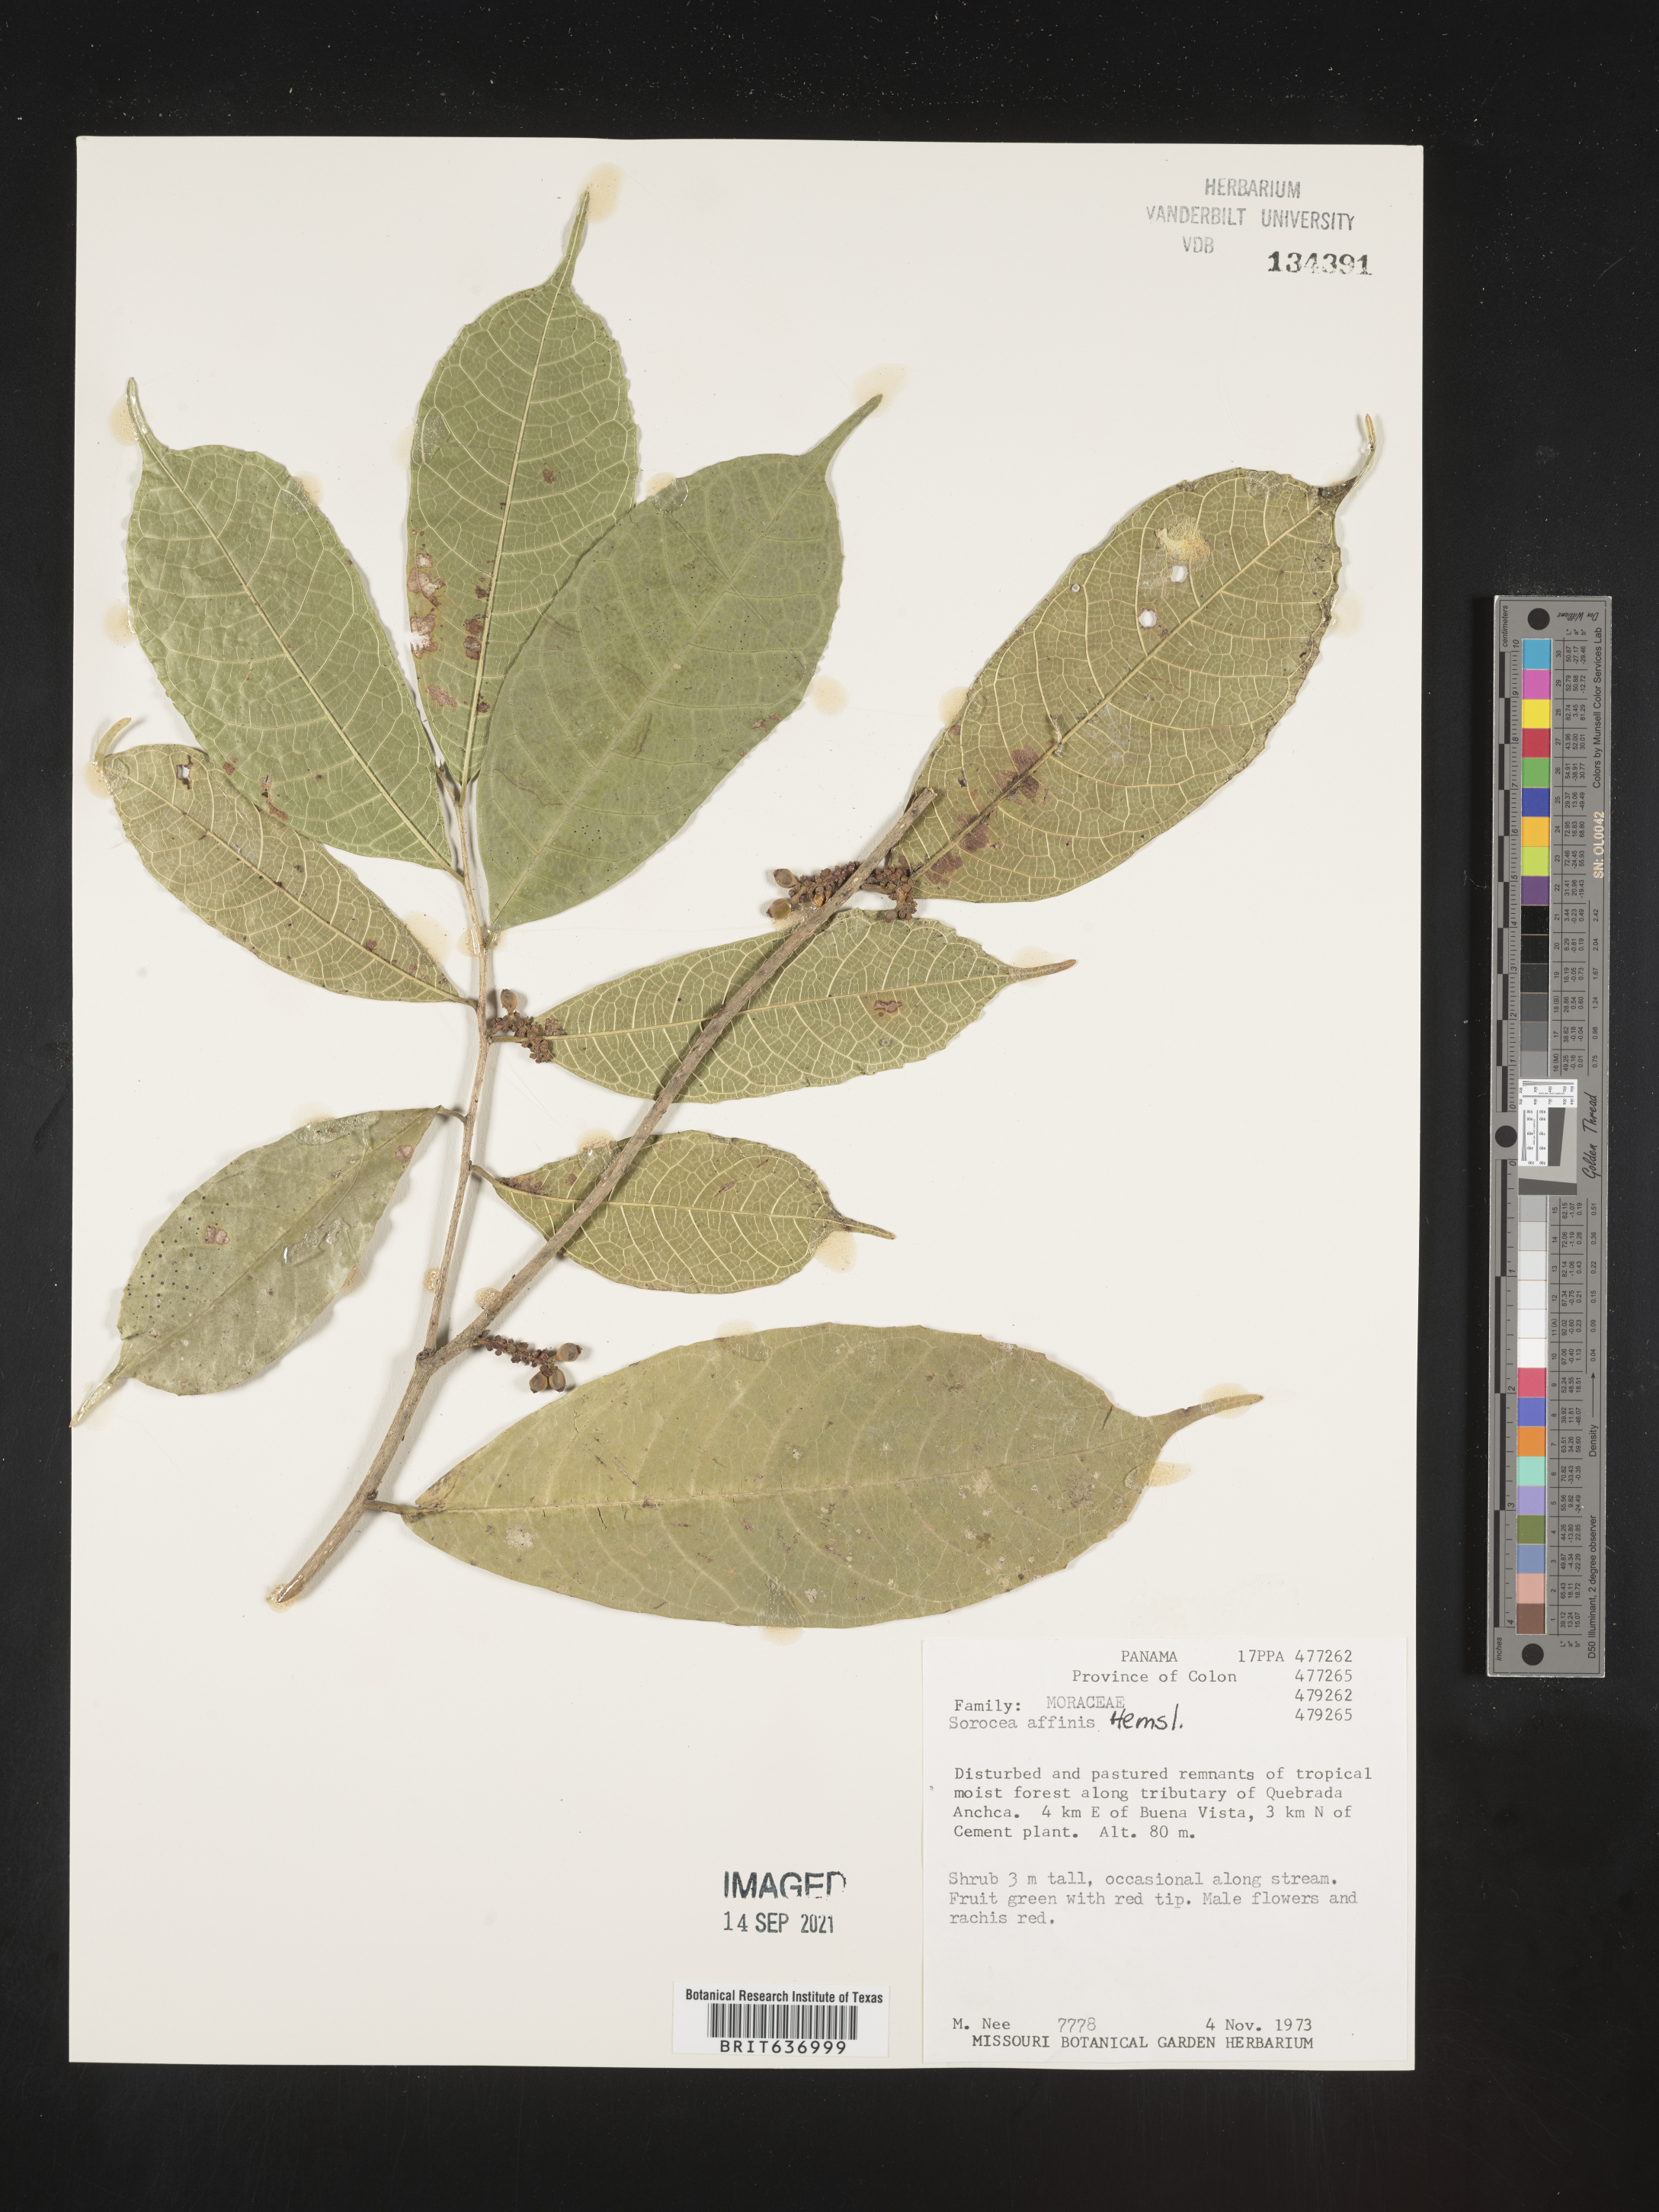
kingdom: Plantae
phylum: Tracheophyta
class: Magnoliopsida
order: Rosales
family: Moraceae
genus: Sorocea
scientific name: Sorocea
